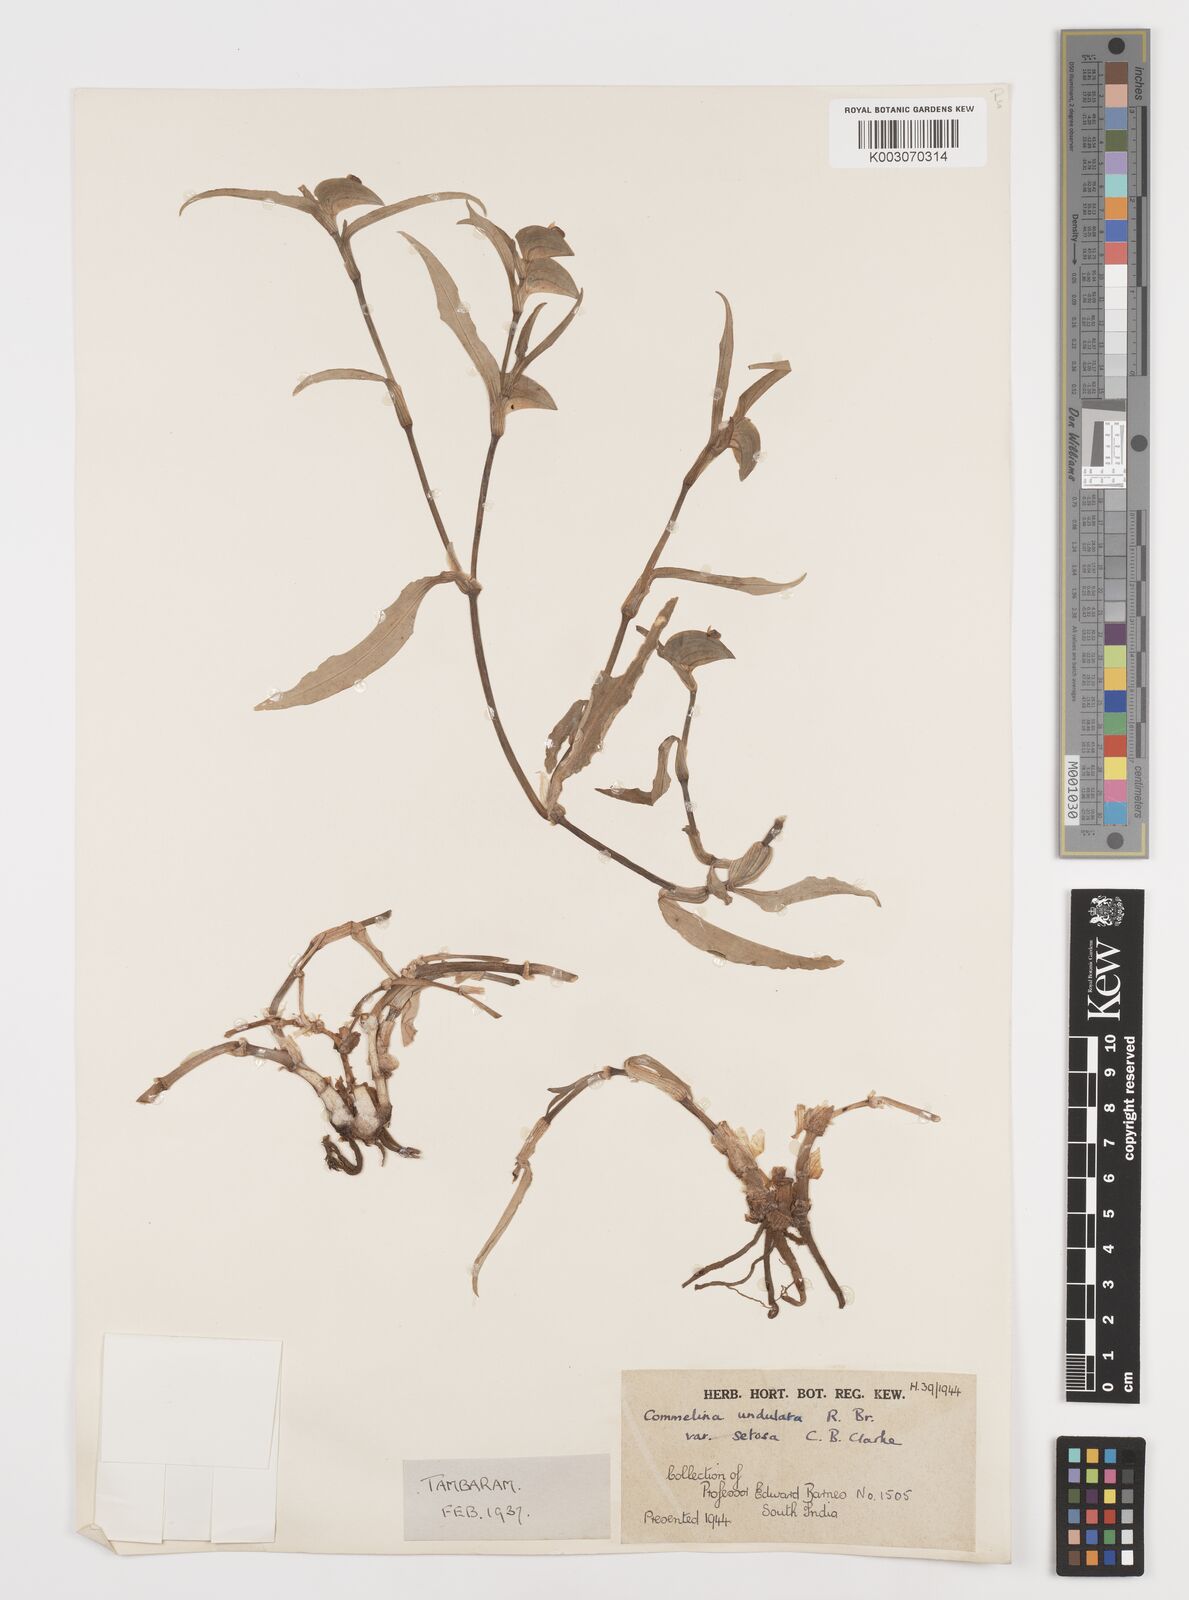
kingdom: Plantae
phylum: Tracheophyta
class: Liliopsida
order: Commelinales
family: Commelinaceae
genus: Commelina
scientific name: Commelina chamissonis
